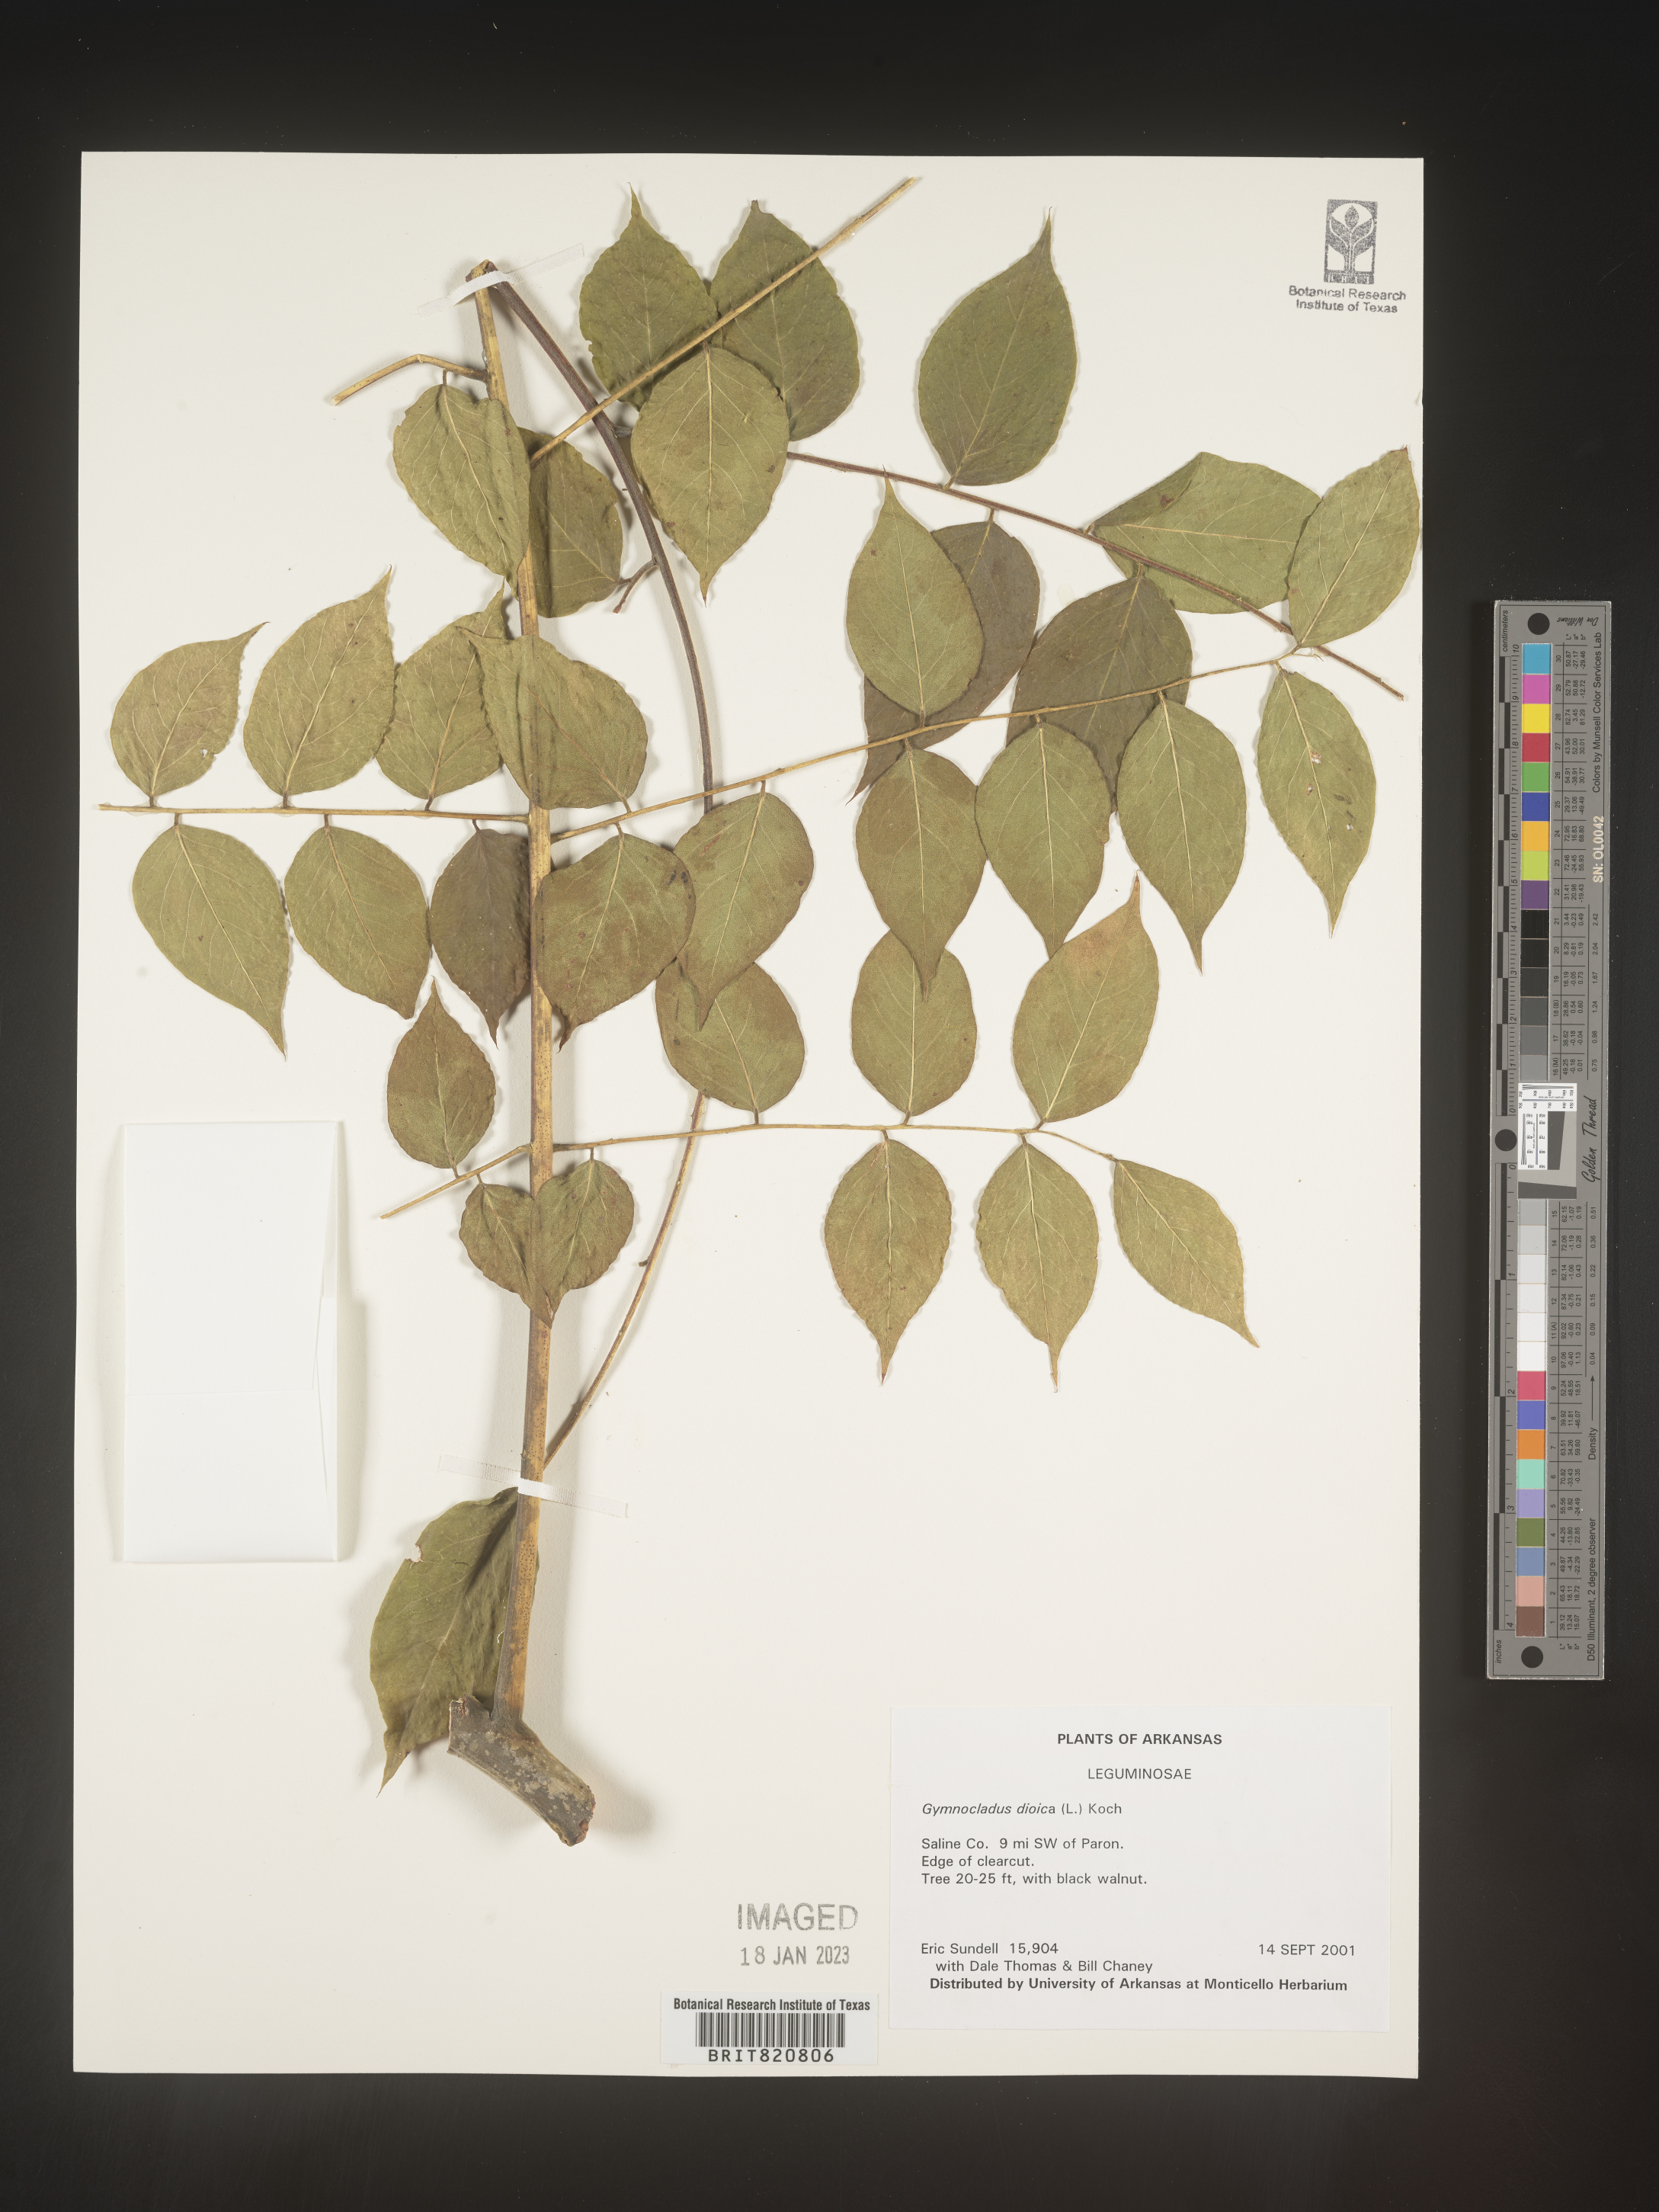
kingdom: Plantae
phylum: Tracheophyta
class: Magnoliopsida
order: Fabales
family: Fabaceae
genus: Gymnocladus
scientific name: Gymnocladus
